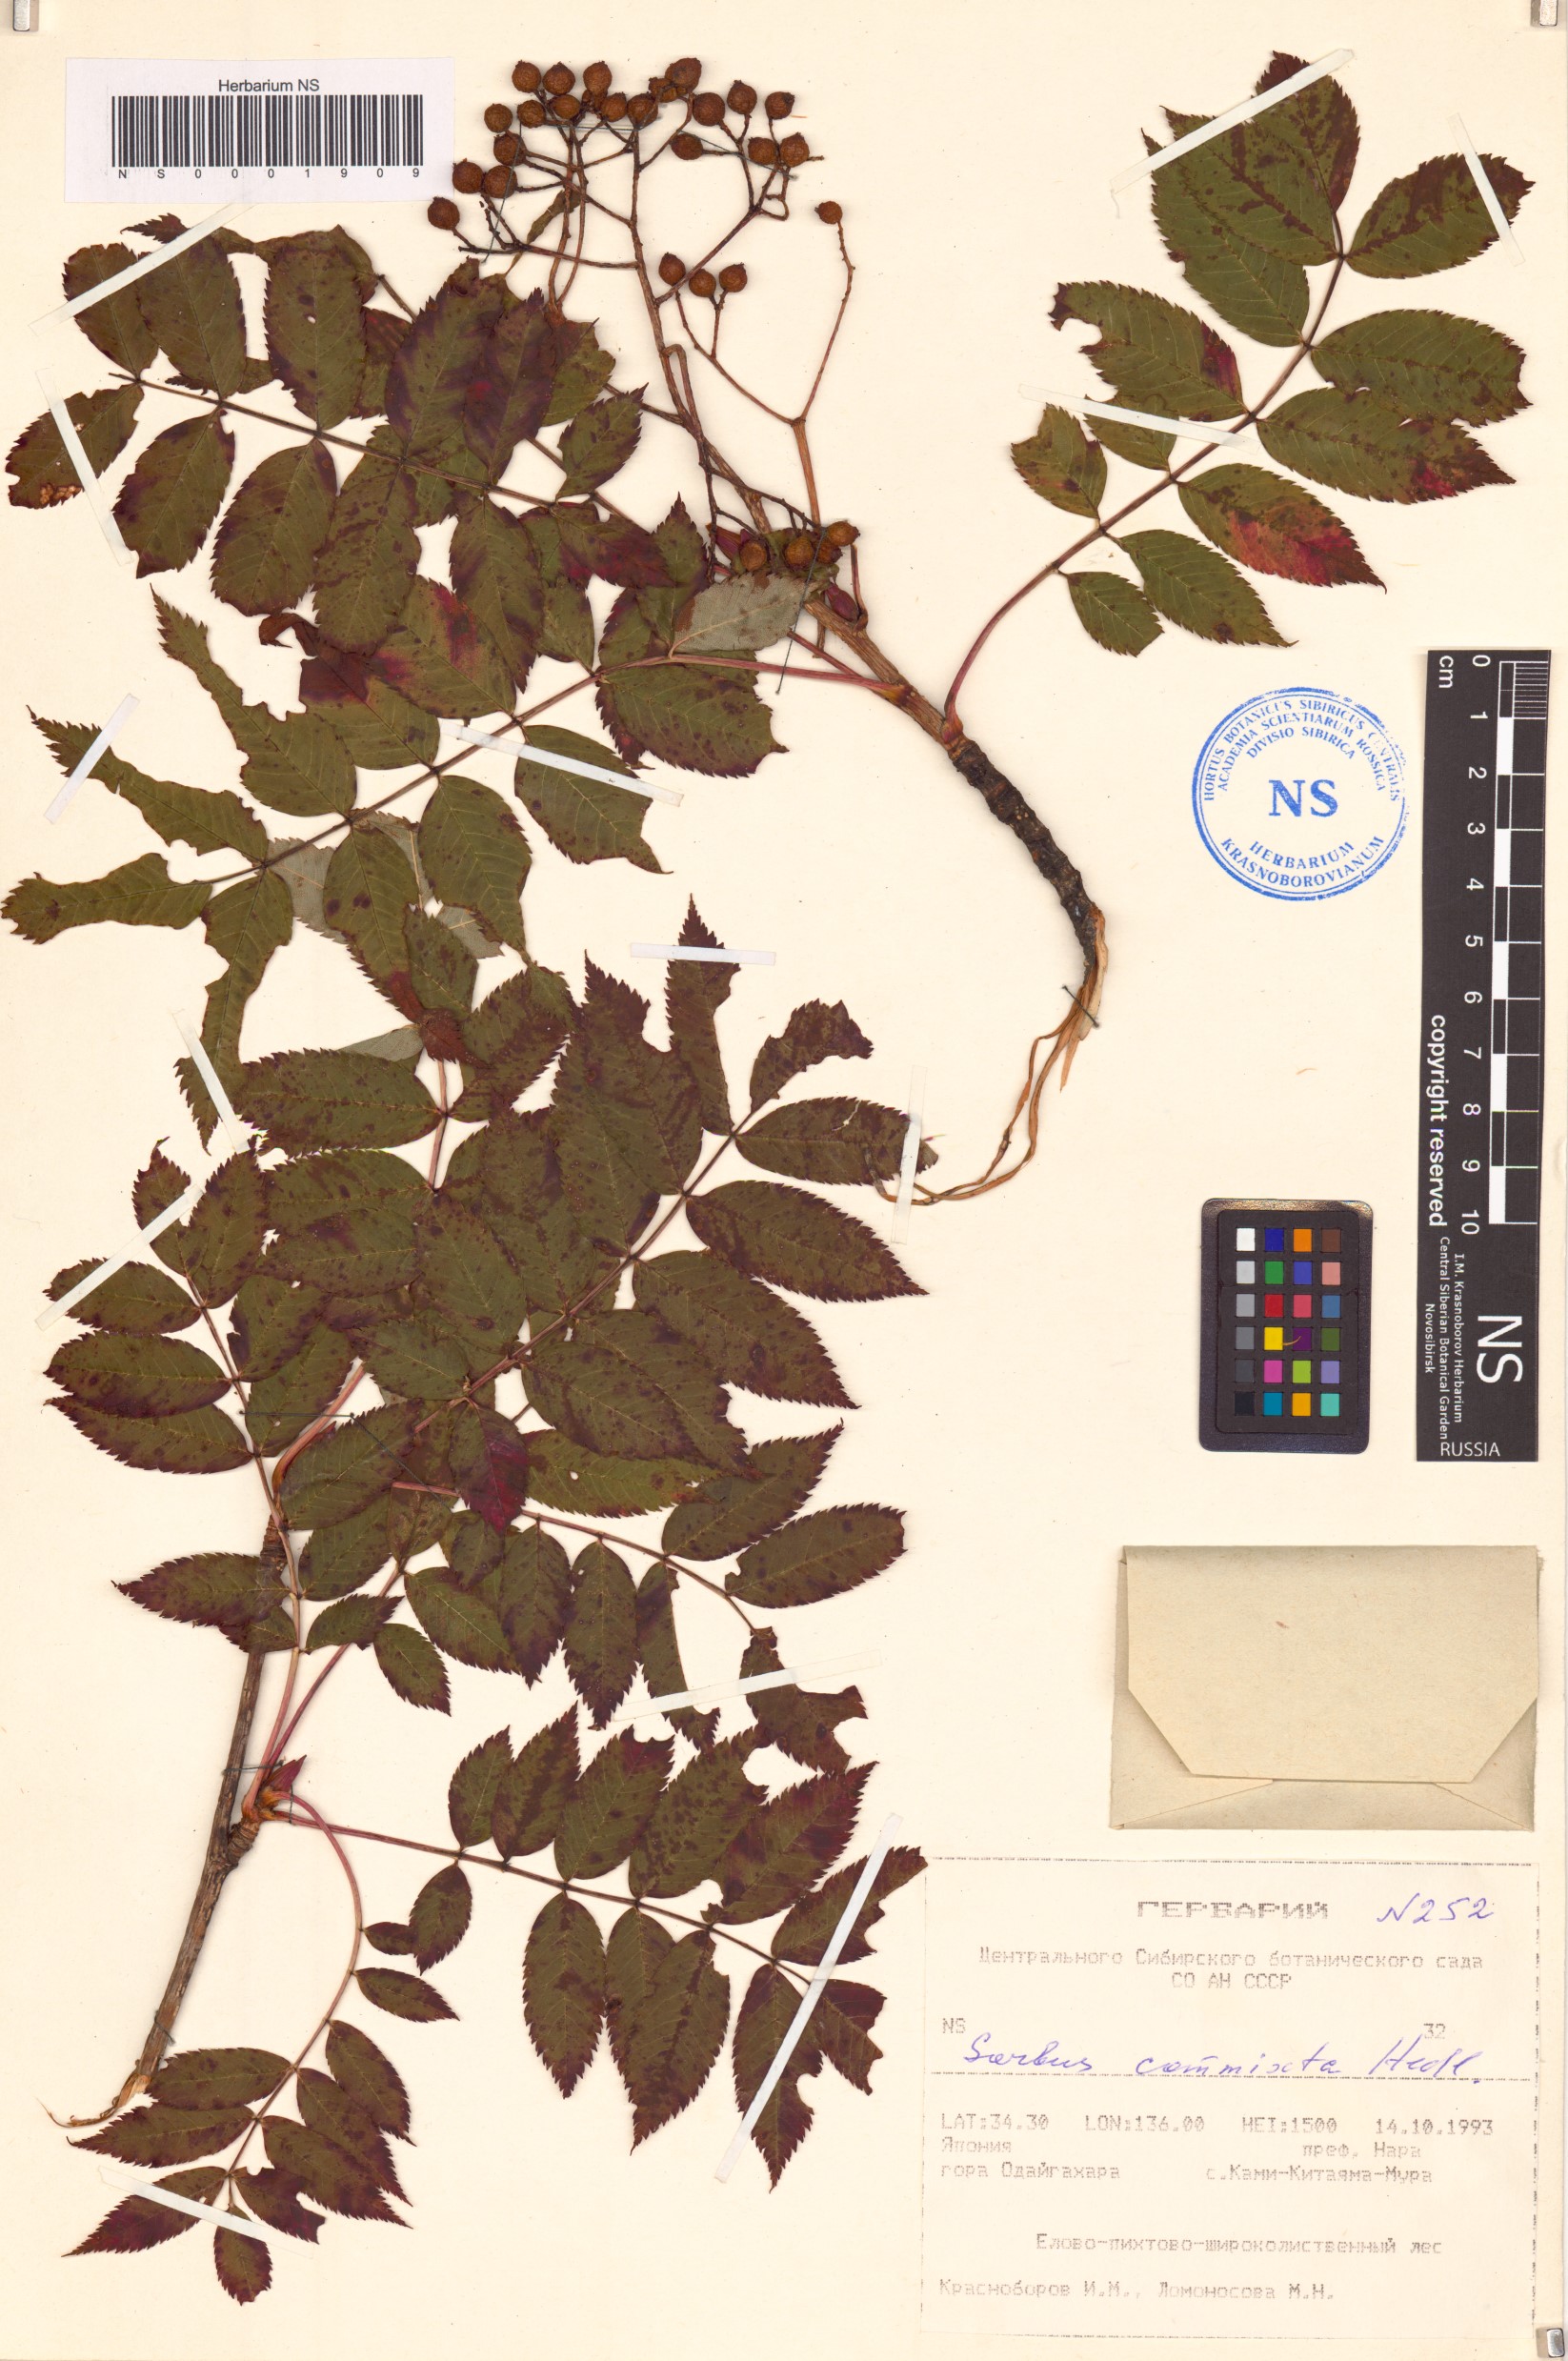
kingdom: Plantae
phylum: Tracheophyta
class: Magnoliopsida
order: Rosales
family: Rosaceae
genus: Sorbus
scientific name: Sorbus commixta
